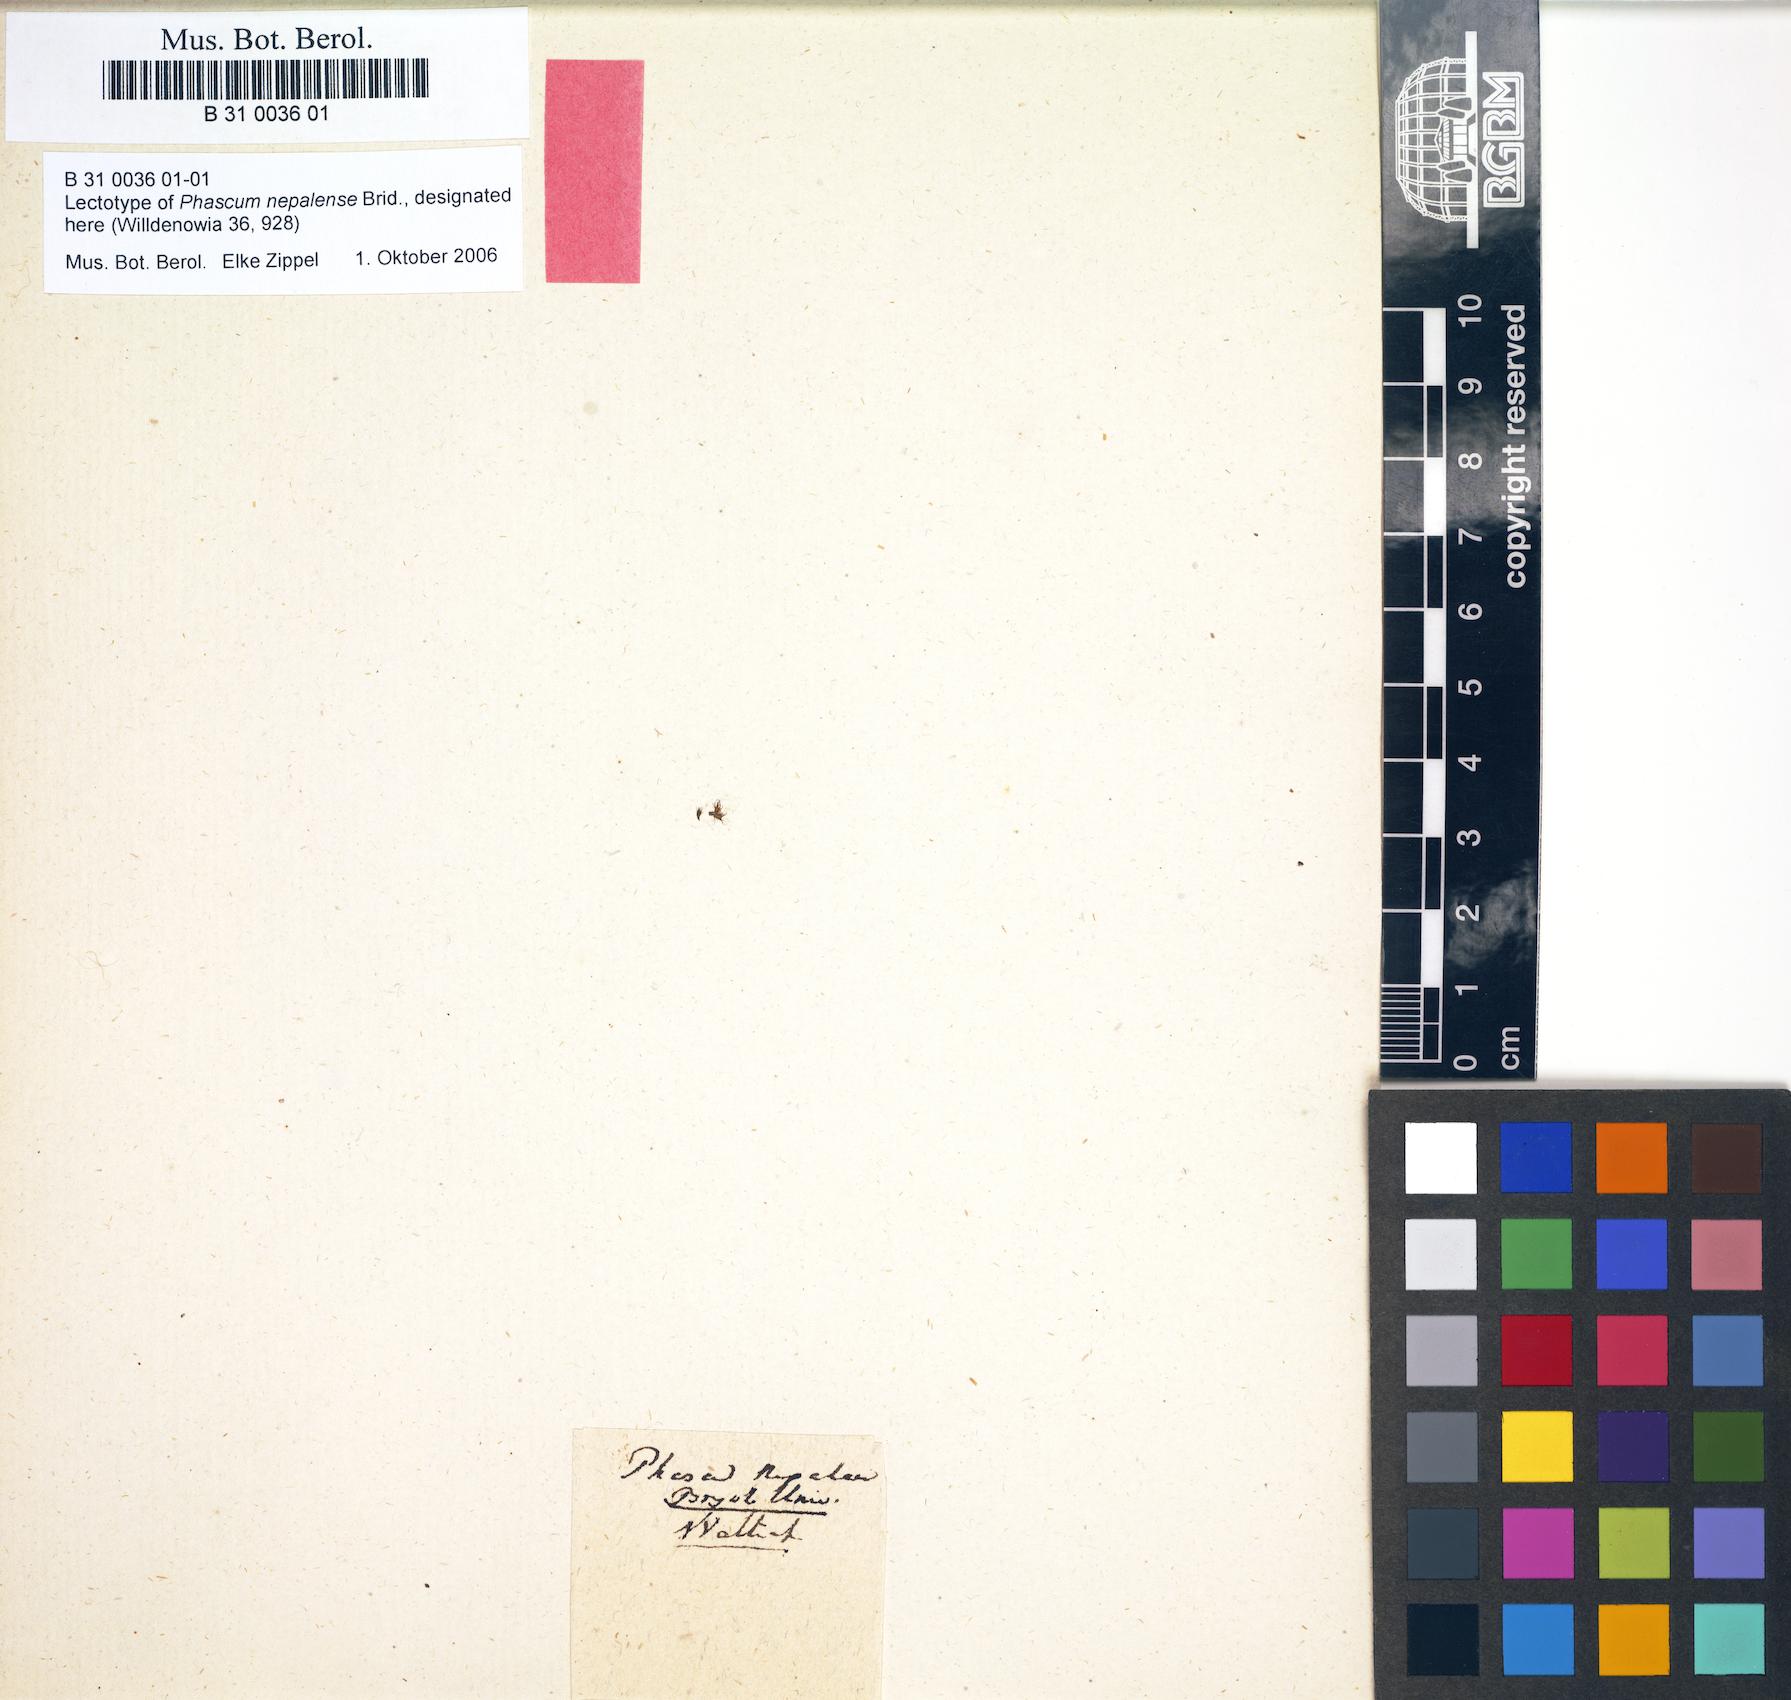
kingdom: Plantae
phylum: Bryophyta
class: Bryopsida
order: Pottiales
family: Pottiaceae
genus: Phascum
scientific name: Phascum nepalense
